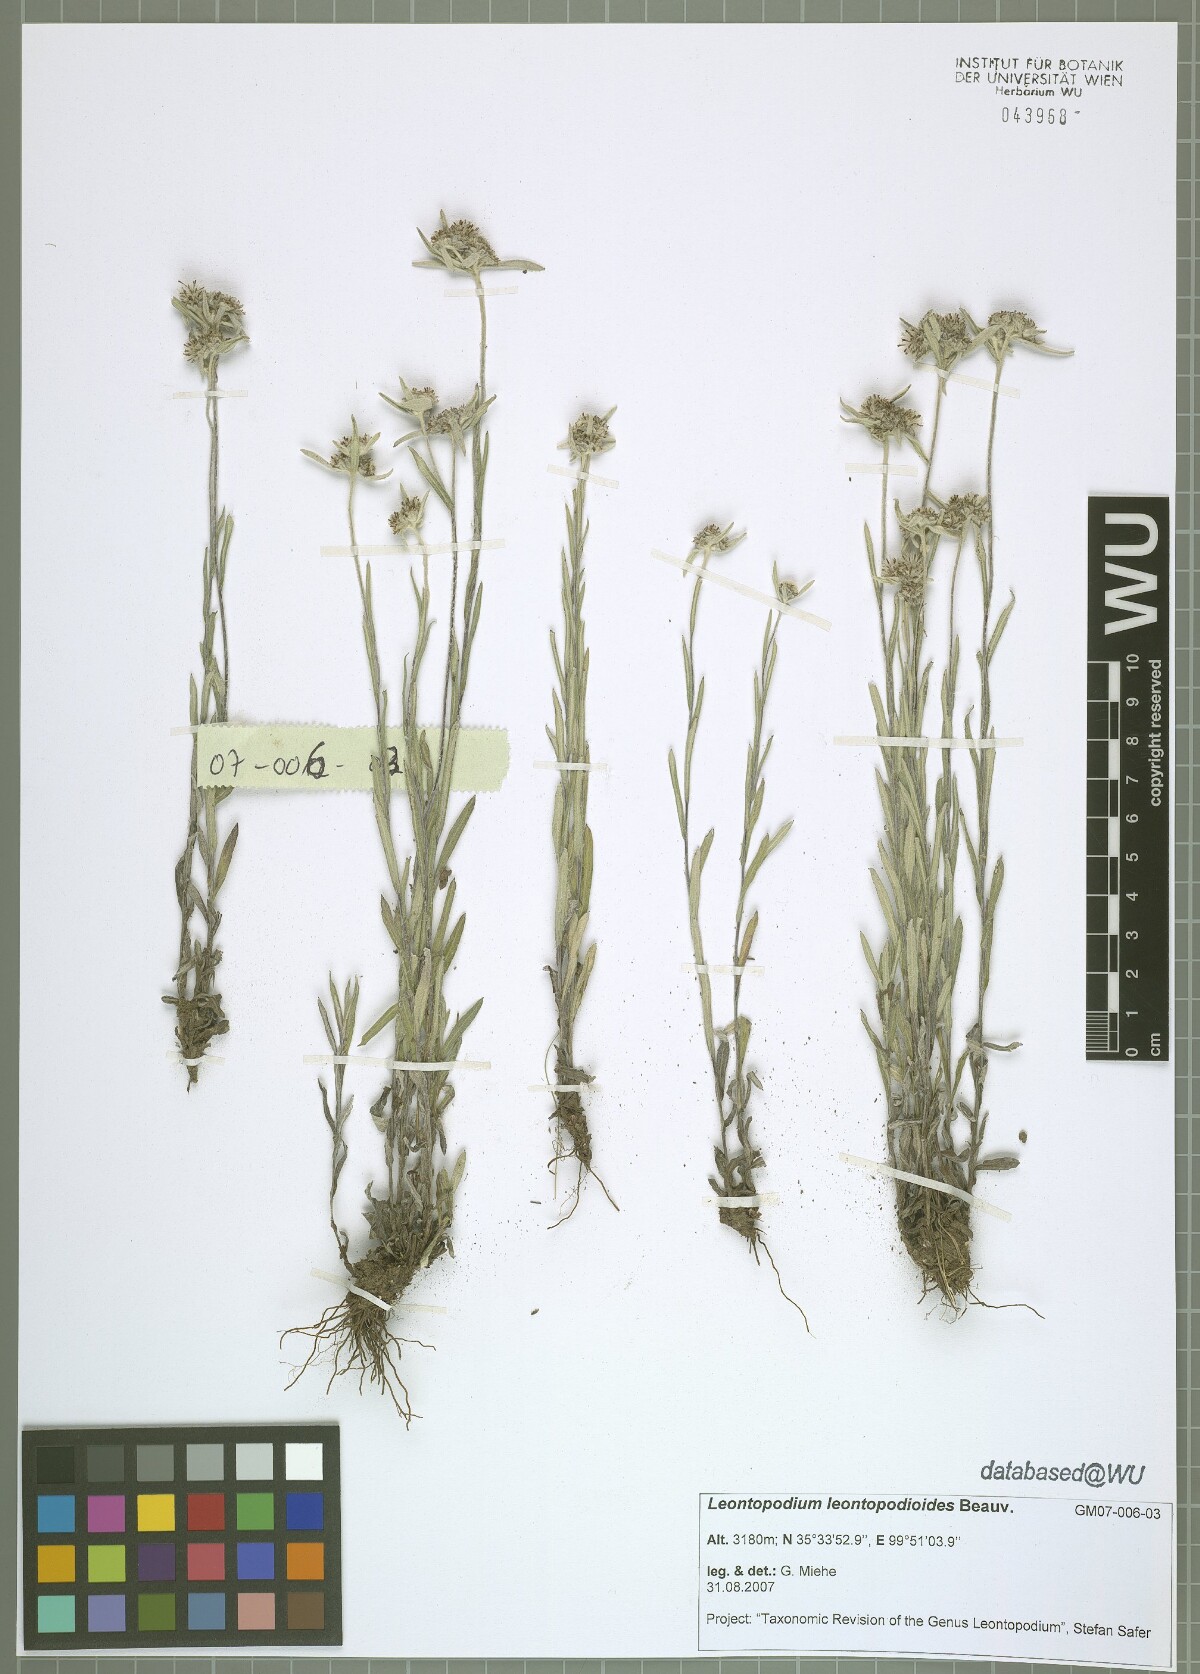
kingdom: Plantae
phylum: Tracheophyta
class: Magnoliopsida
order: Asterales
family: Asteraceae
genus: Leontopodium
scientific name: Leontopodium leontopodioides
